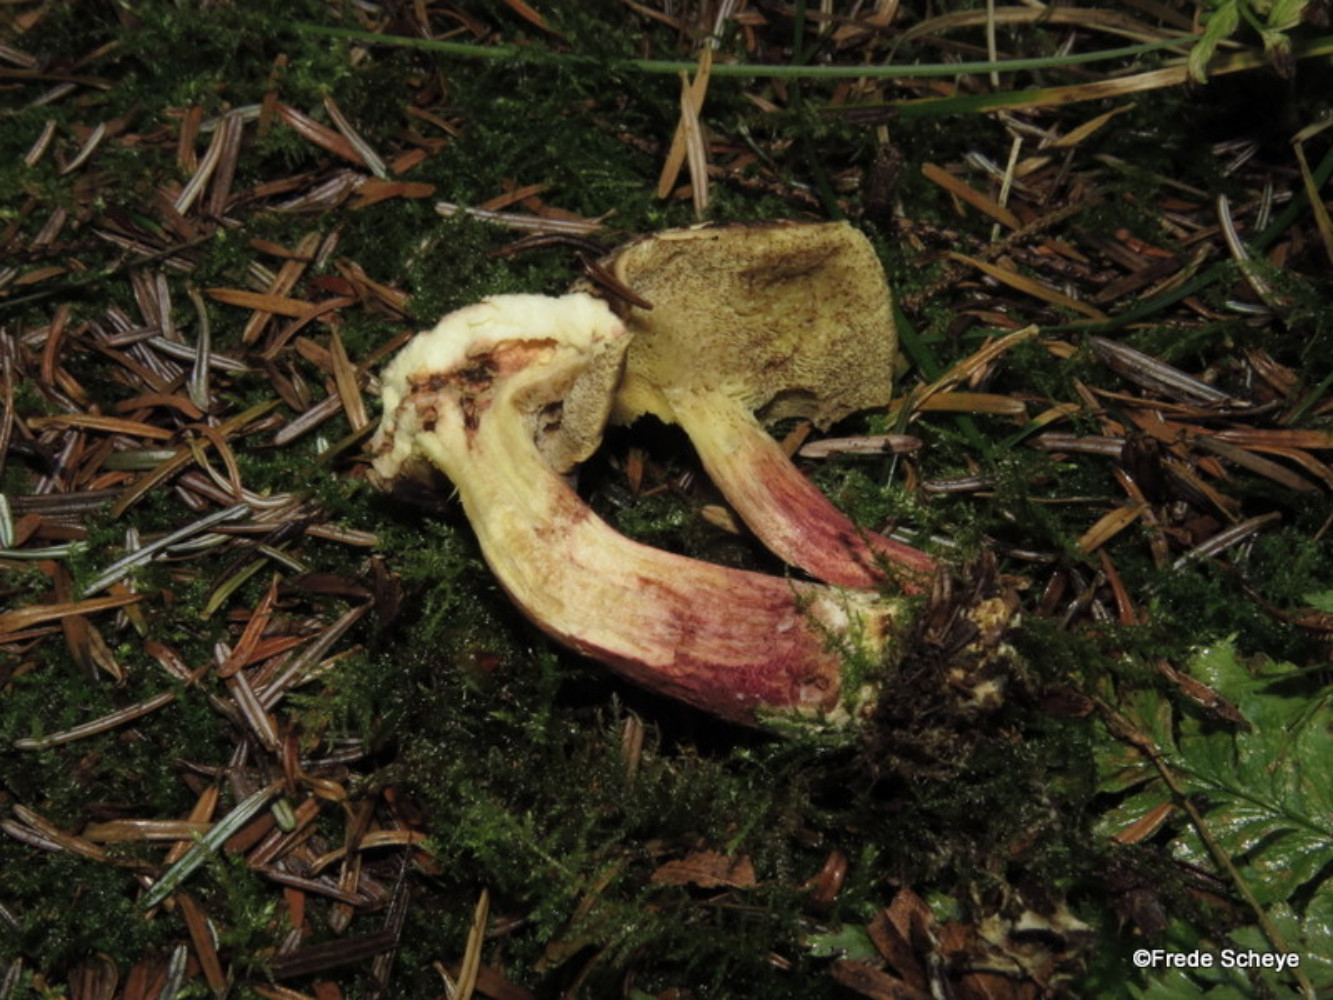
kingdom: Fungi
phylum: Basidiomycota
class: Agaricomycetes
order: Boletales
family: Boletaceae
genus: Xerocomellus
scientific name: Xerocomellus chrysenteron
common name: rødsprukken rørhat
